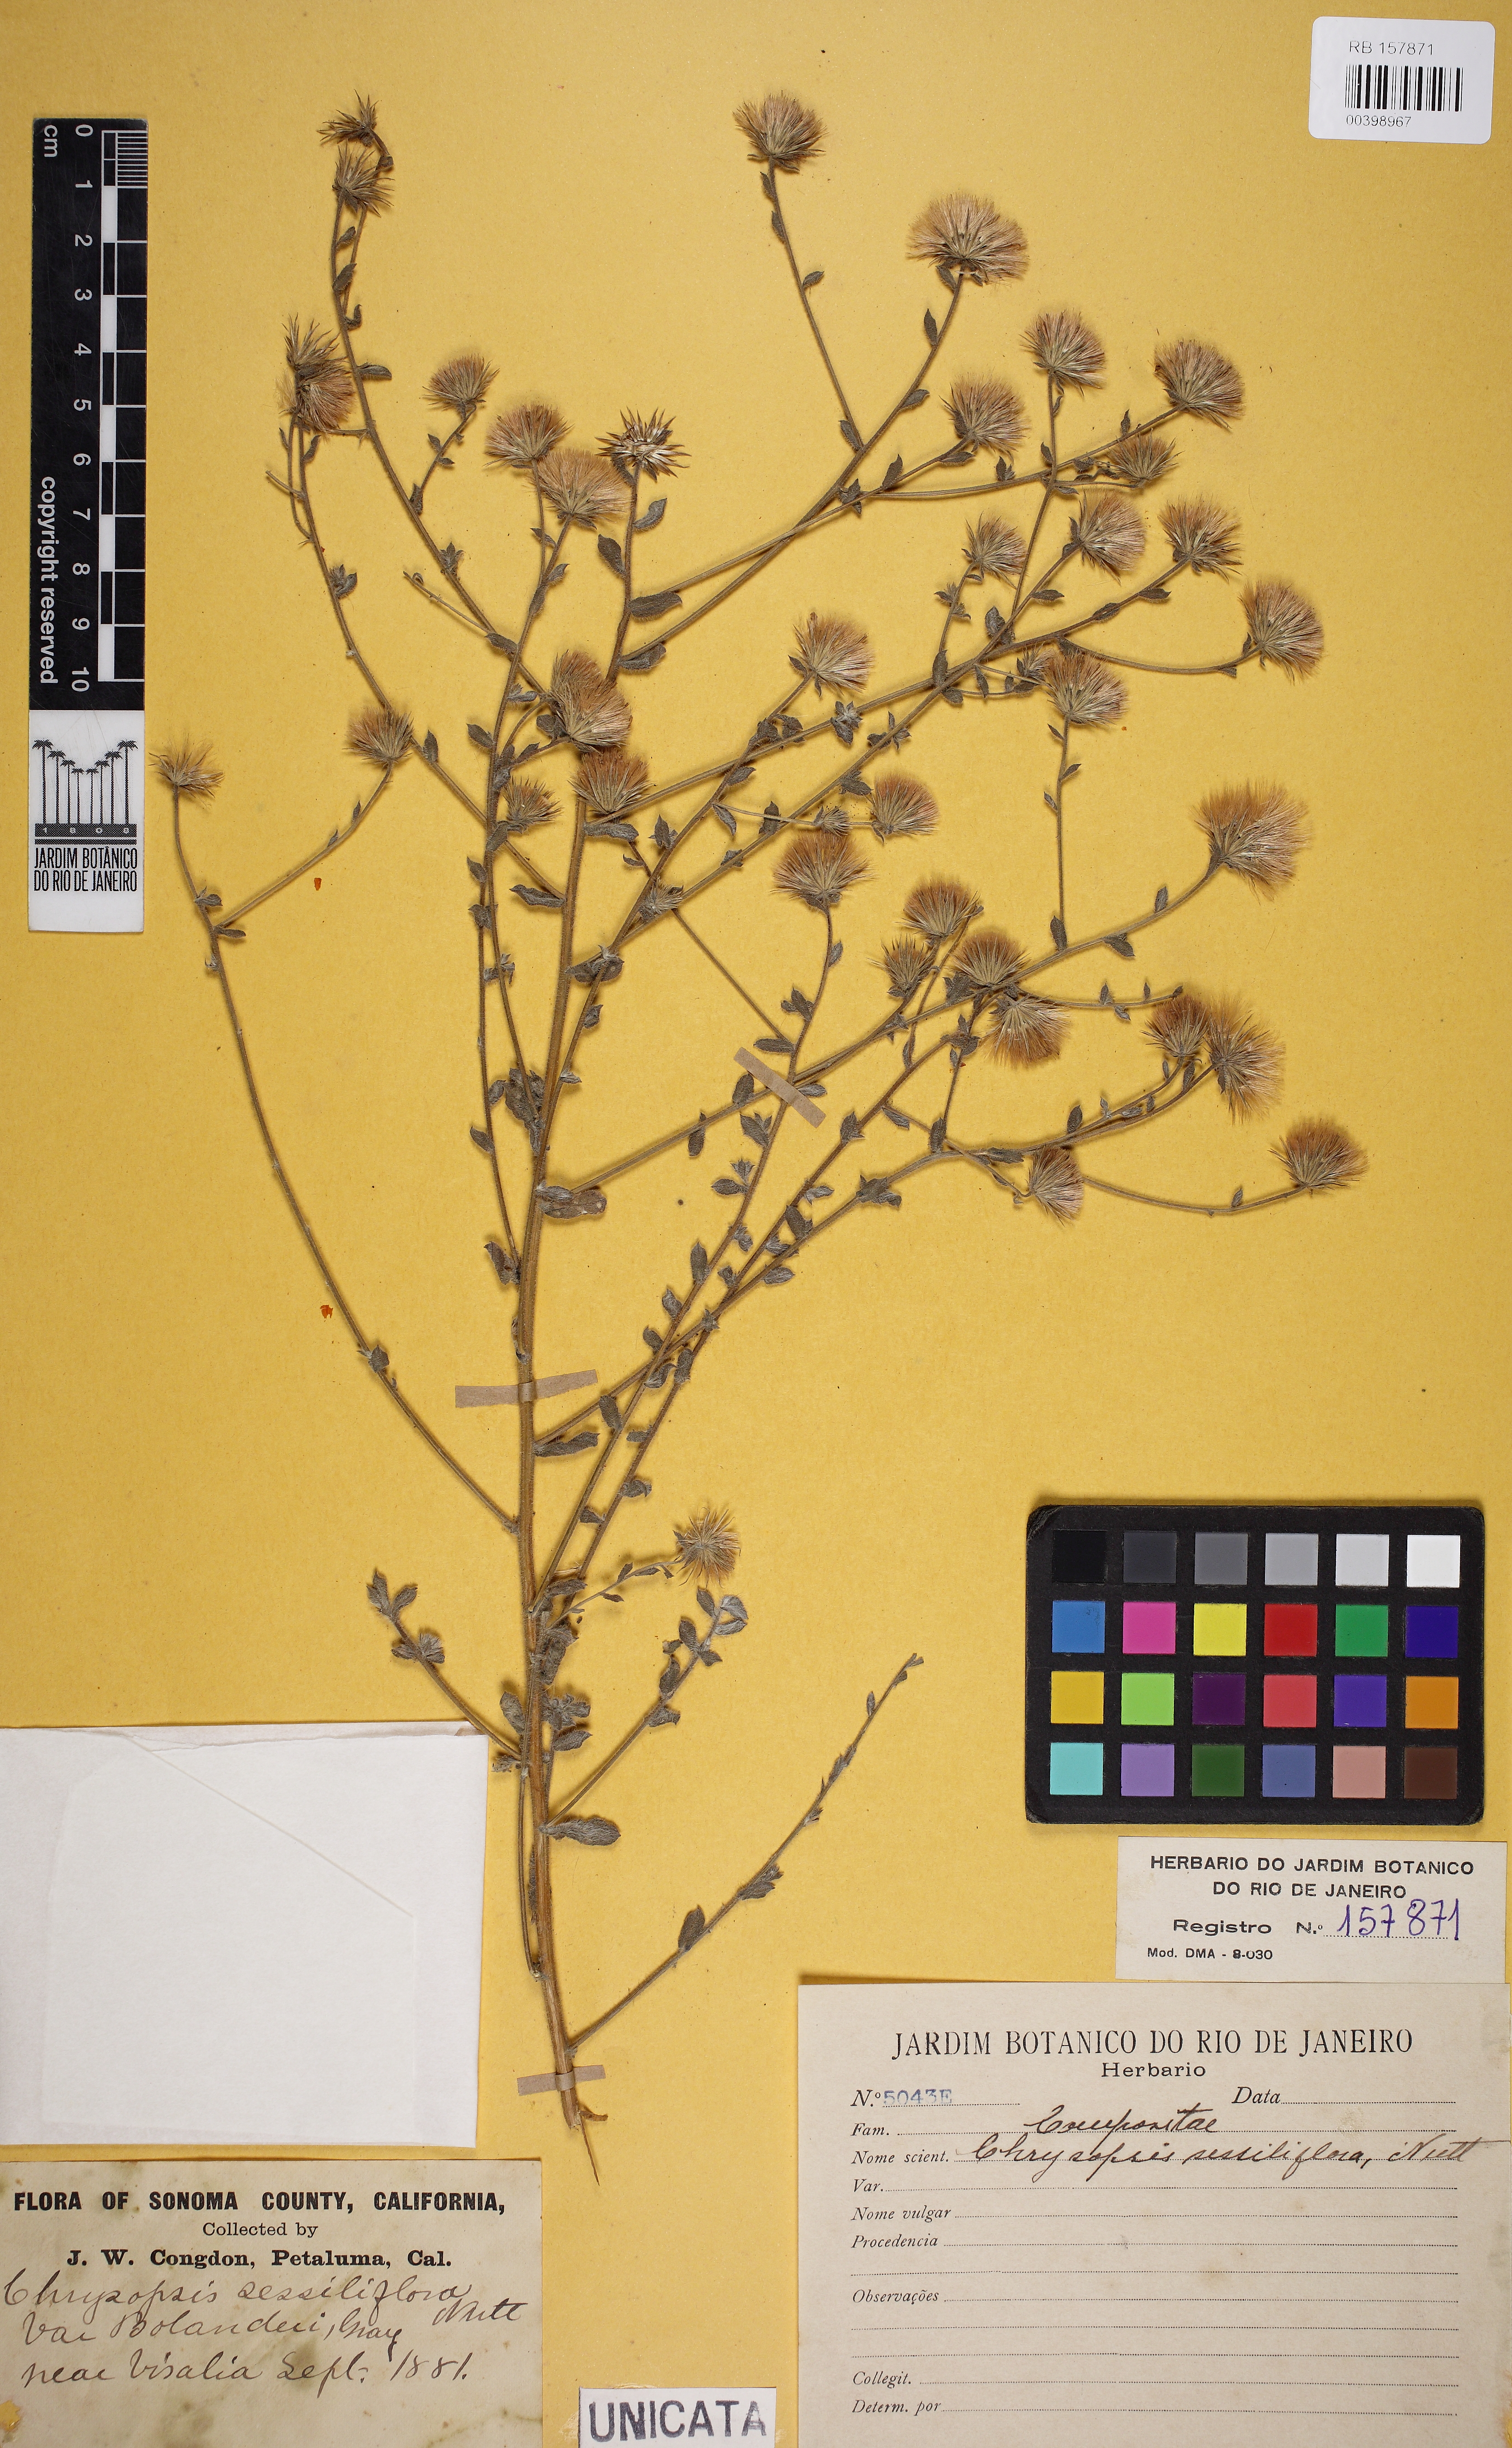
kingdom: Plantae
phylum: Tracheophyta
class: Magnoliopsida
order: Asterales
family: Asteraceae
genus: Heterotheca
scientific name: Heterotheca sessiliflora
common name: Sessile-flower golden-aster
